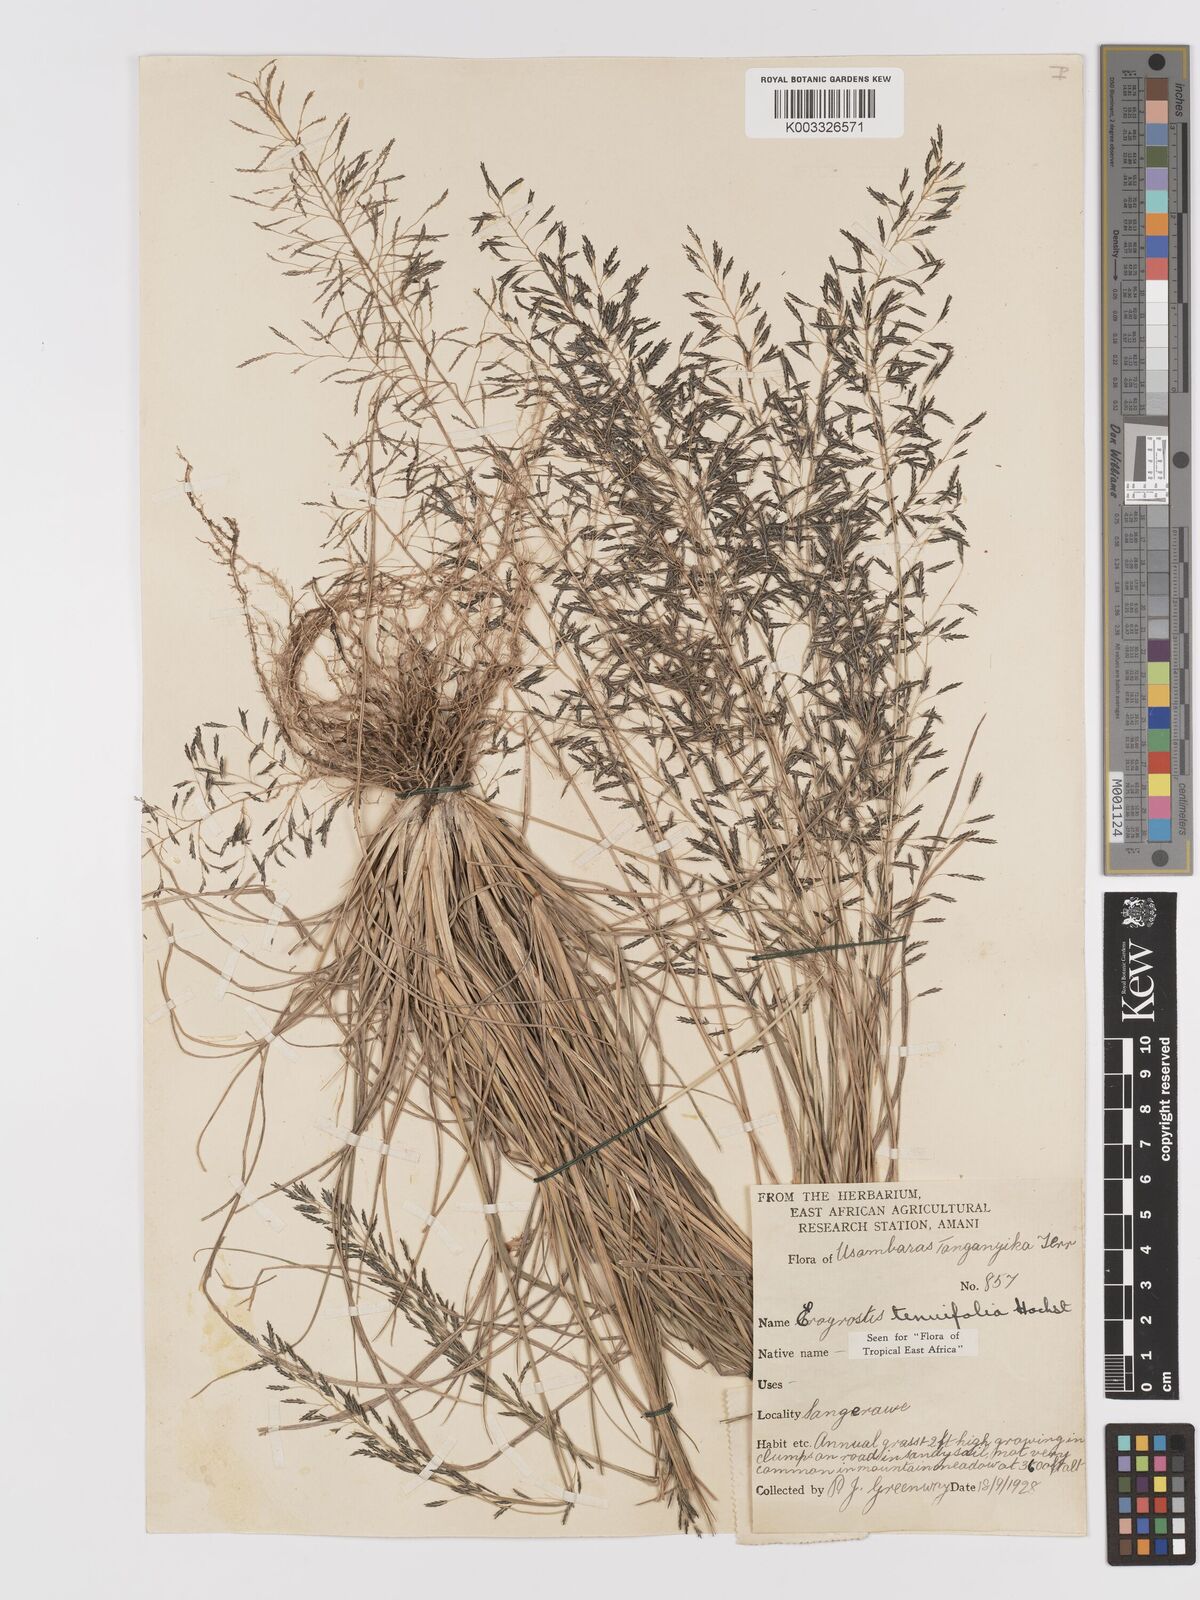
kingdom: Plantae
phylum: Tracheophyta
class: Liliopsida
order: Poales
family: Poaceae
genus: Eragrostis
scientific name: Eragrostis tenuifolia
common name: Elastic grass
